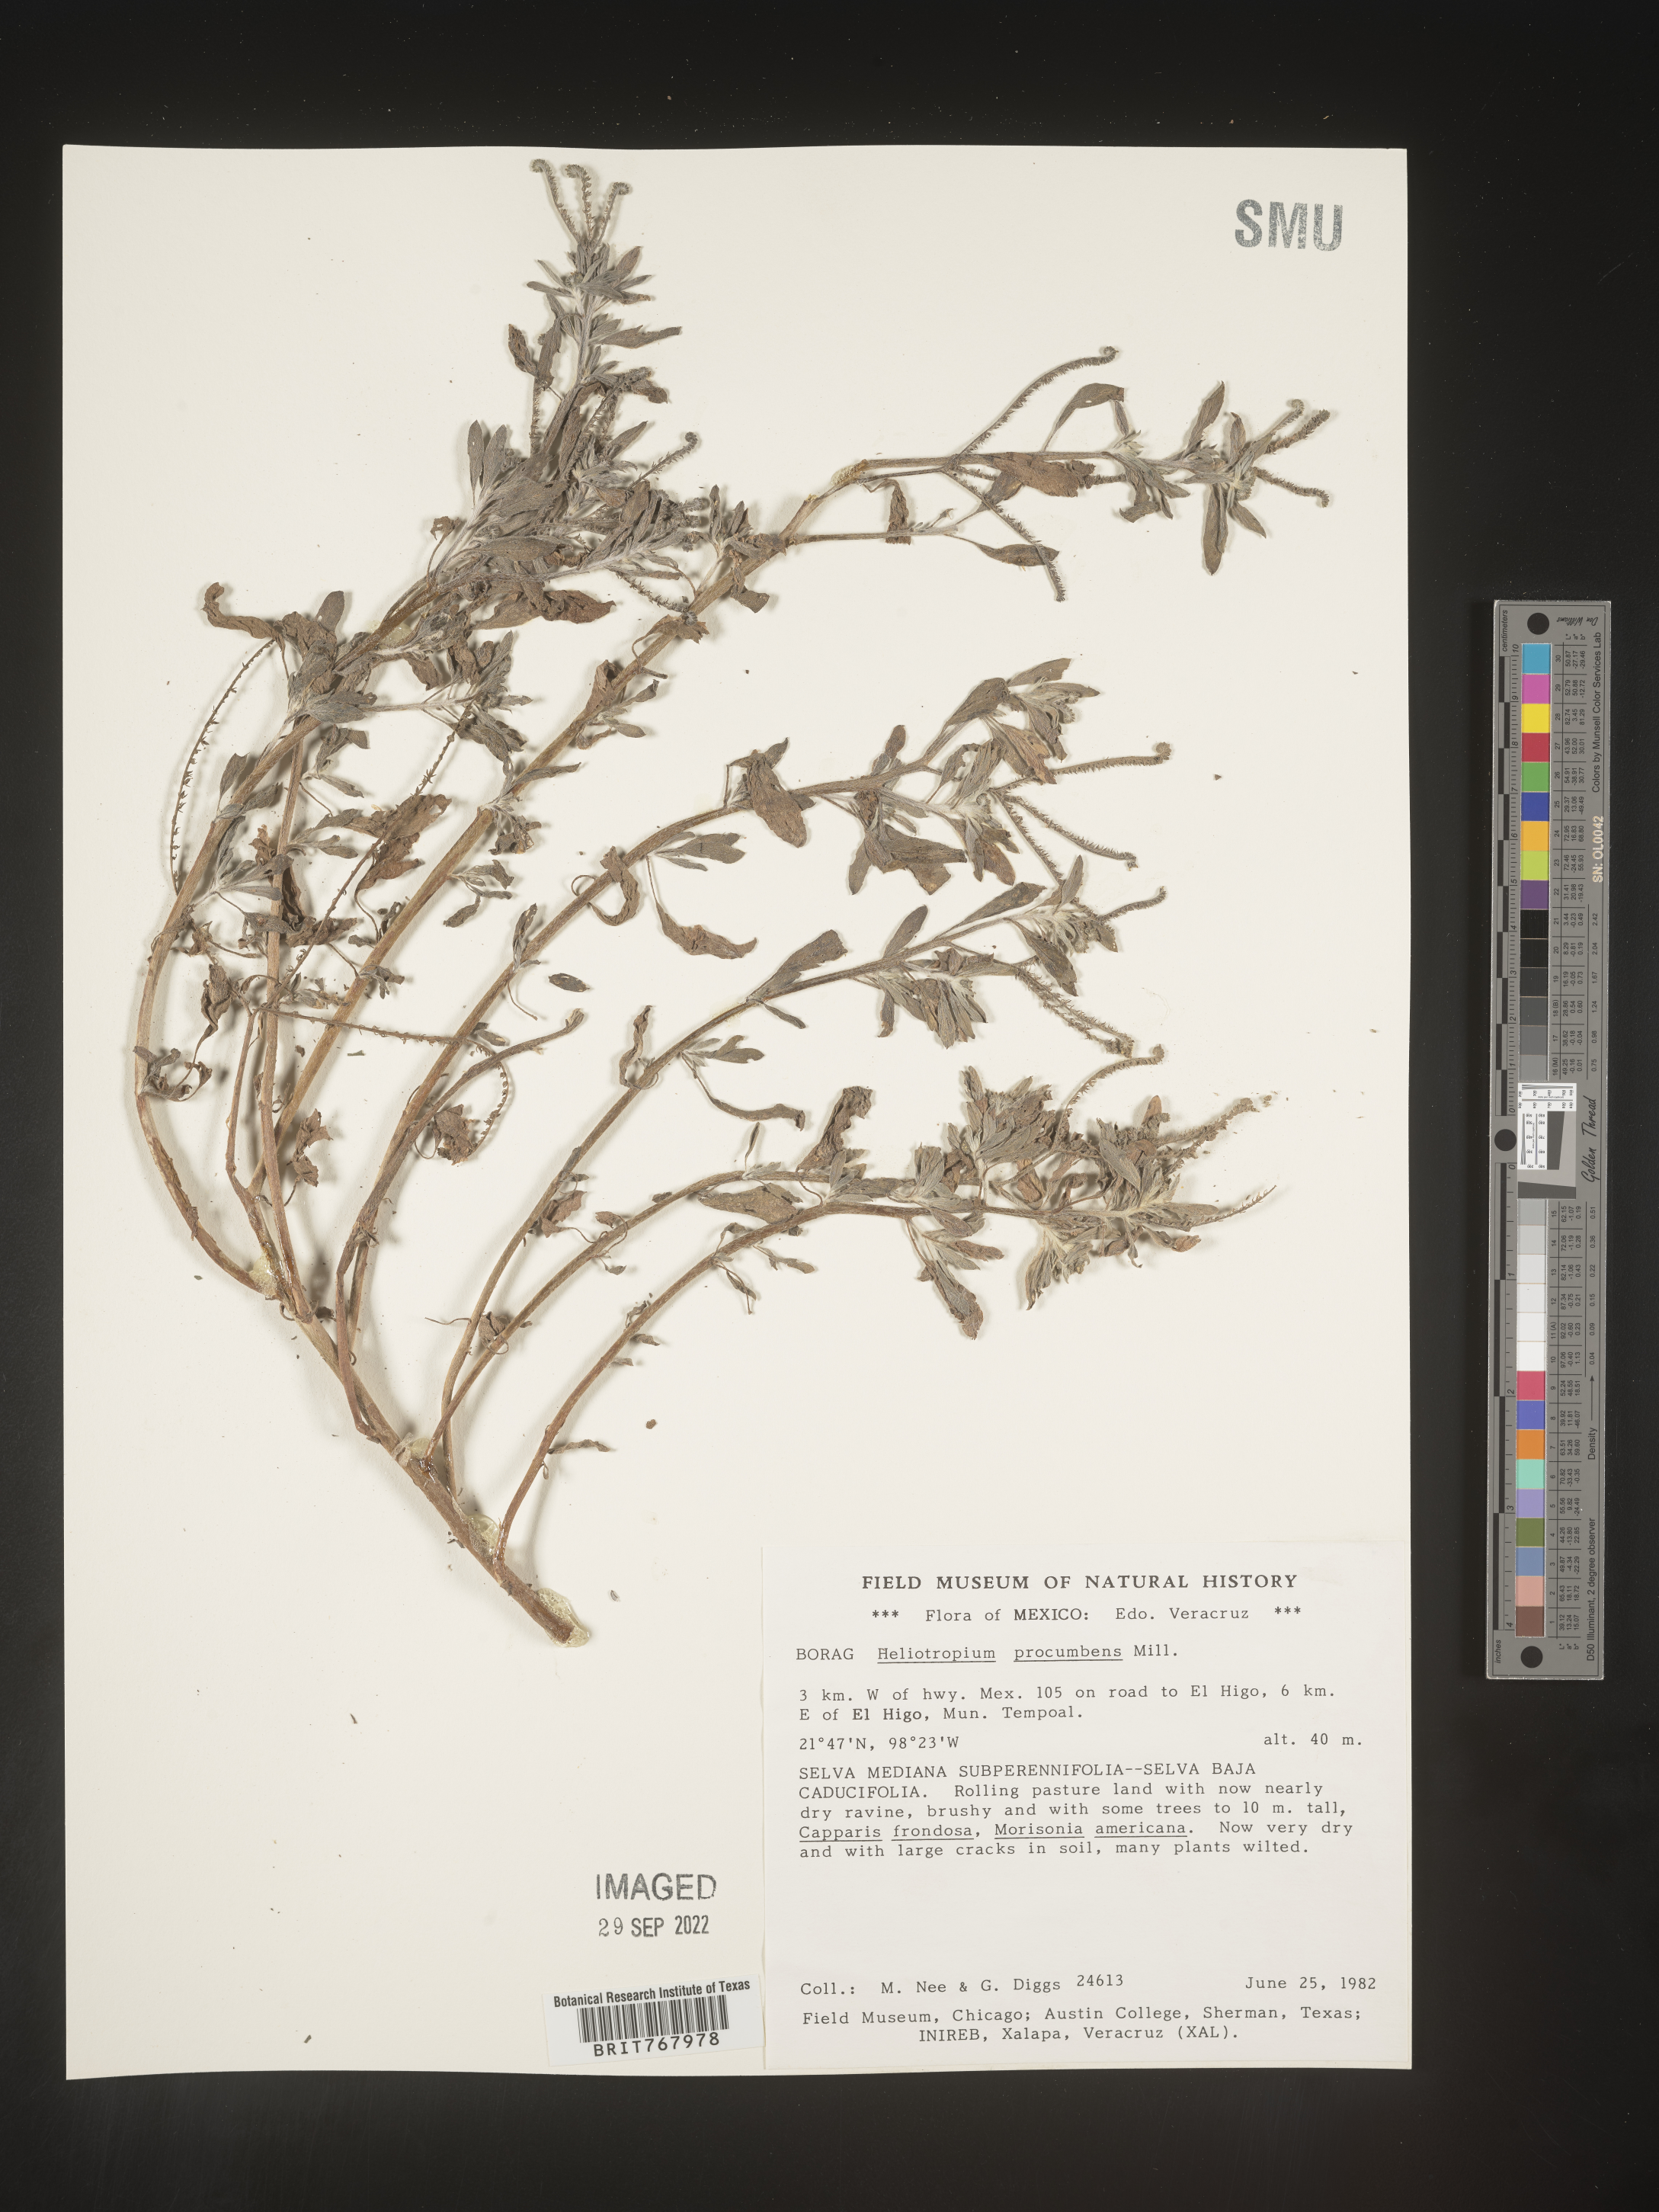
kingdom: Plantae
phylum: Tracheophyta
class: Magnoliopsida
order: Boraginales
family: Heliotropiaceae
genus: Heliotropium
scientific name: Heliotropium
